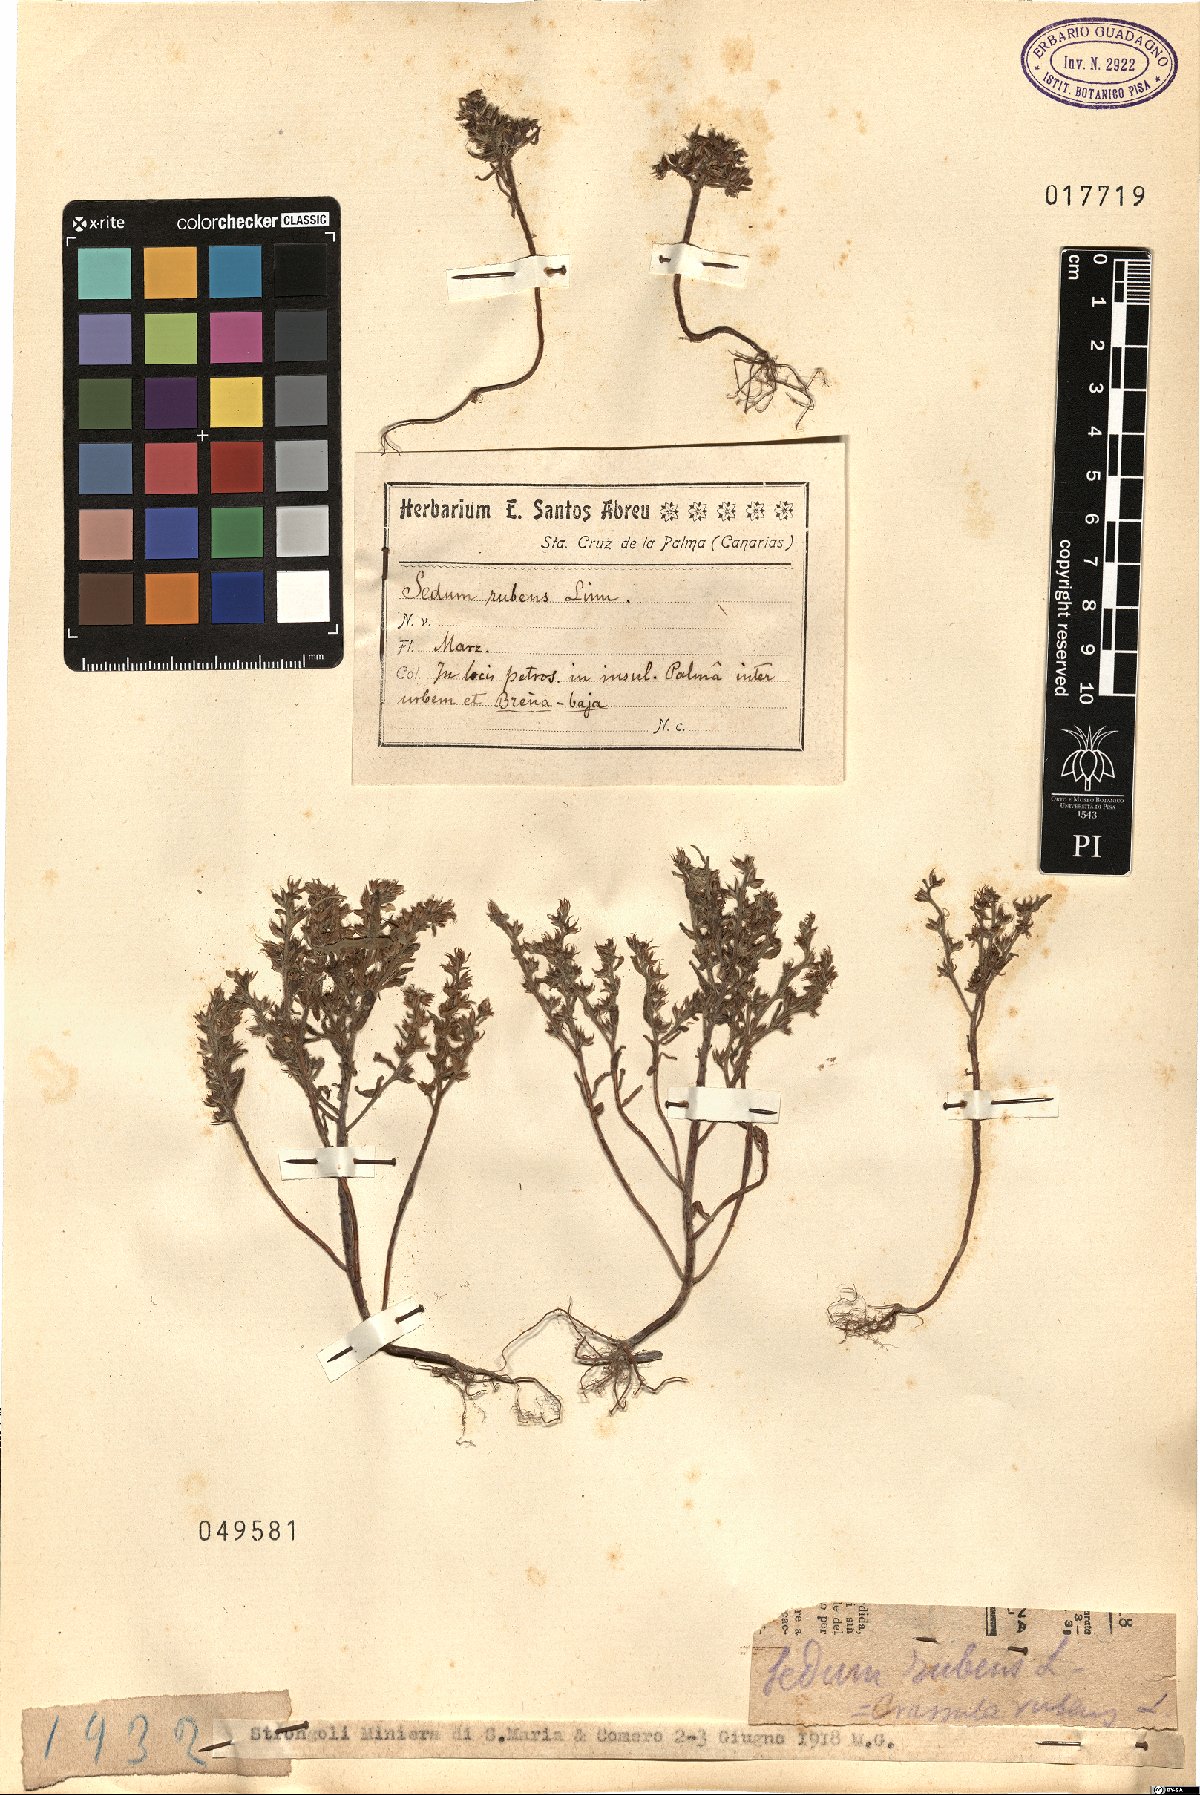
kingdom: Plantae
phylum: Tracheophyta
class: Magnoliopsida
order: Saxifragales
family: Crassulaceae
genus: Sedum
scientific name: Sedum rubens
